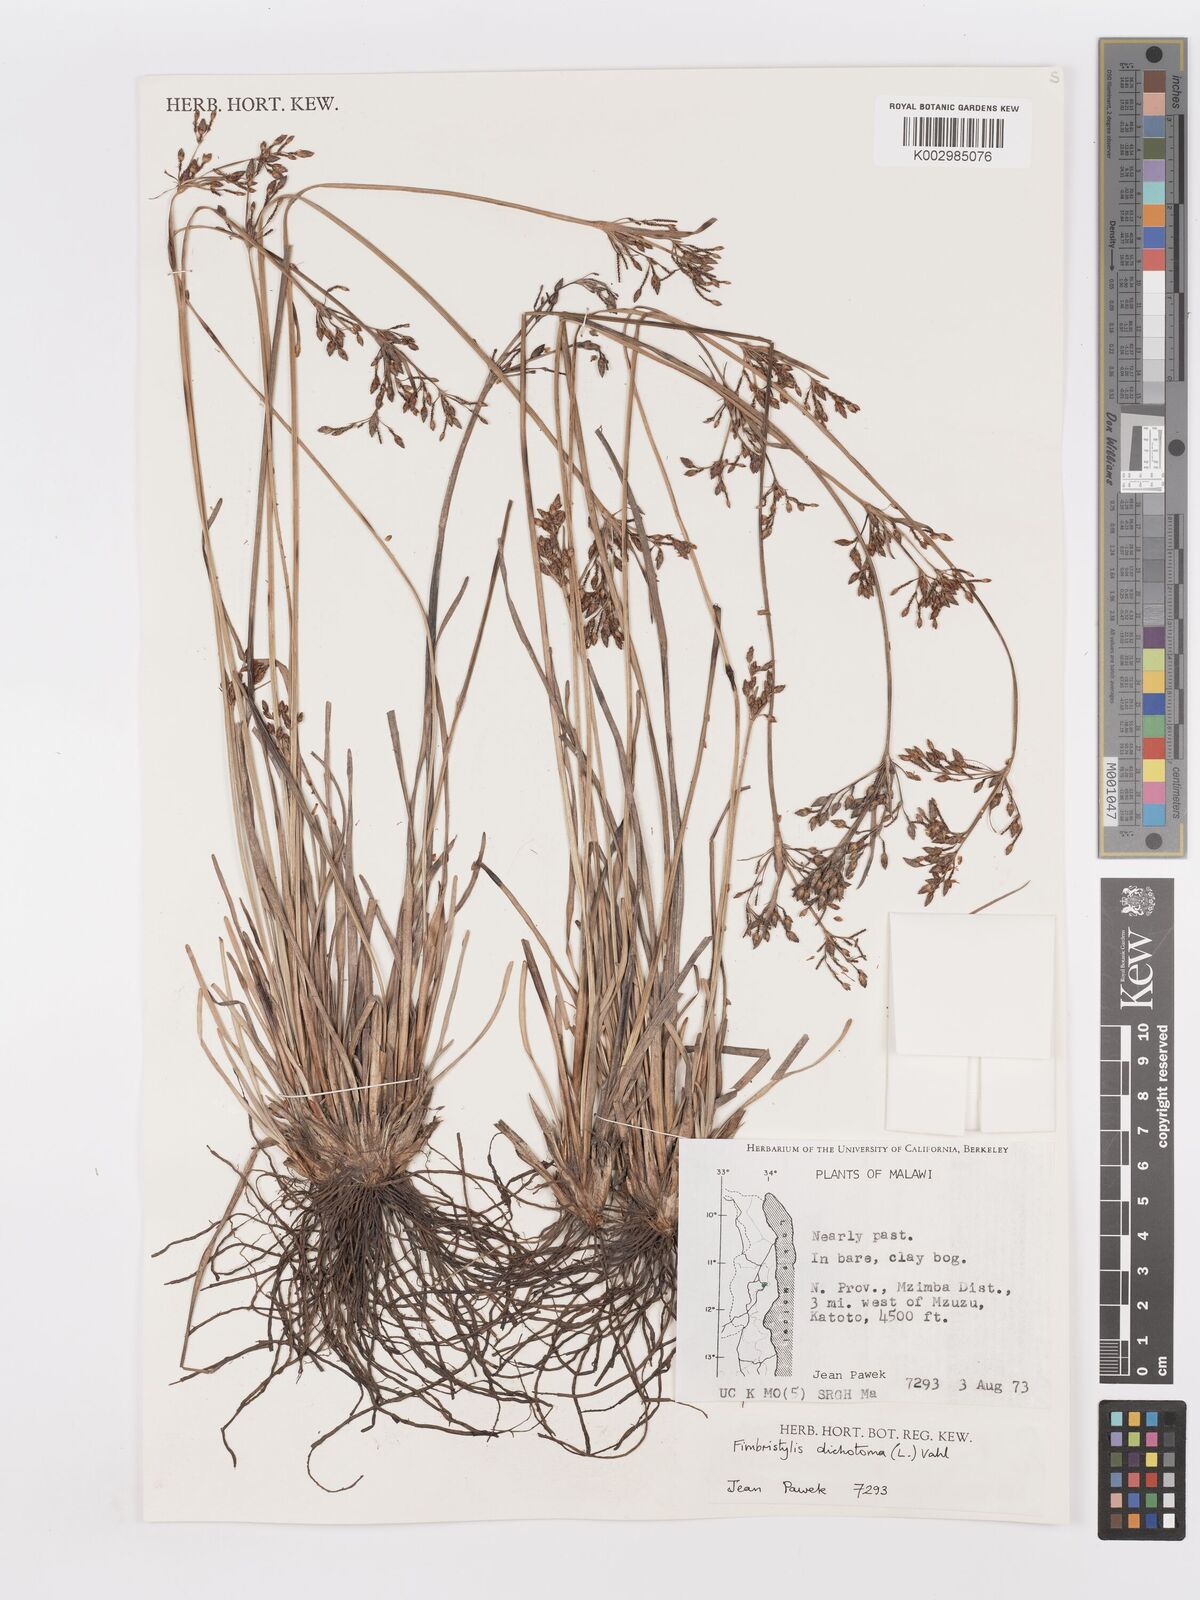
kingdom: Plantae
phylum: Tracheophyta
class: Liliopsida
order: Poales
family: Cyperaceae
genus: Fimbristylis
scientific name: Fimbristylis dichotoma
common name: Forked fimbry
